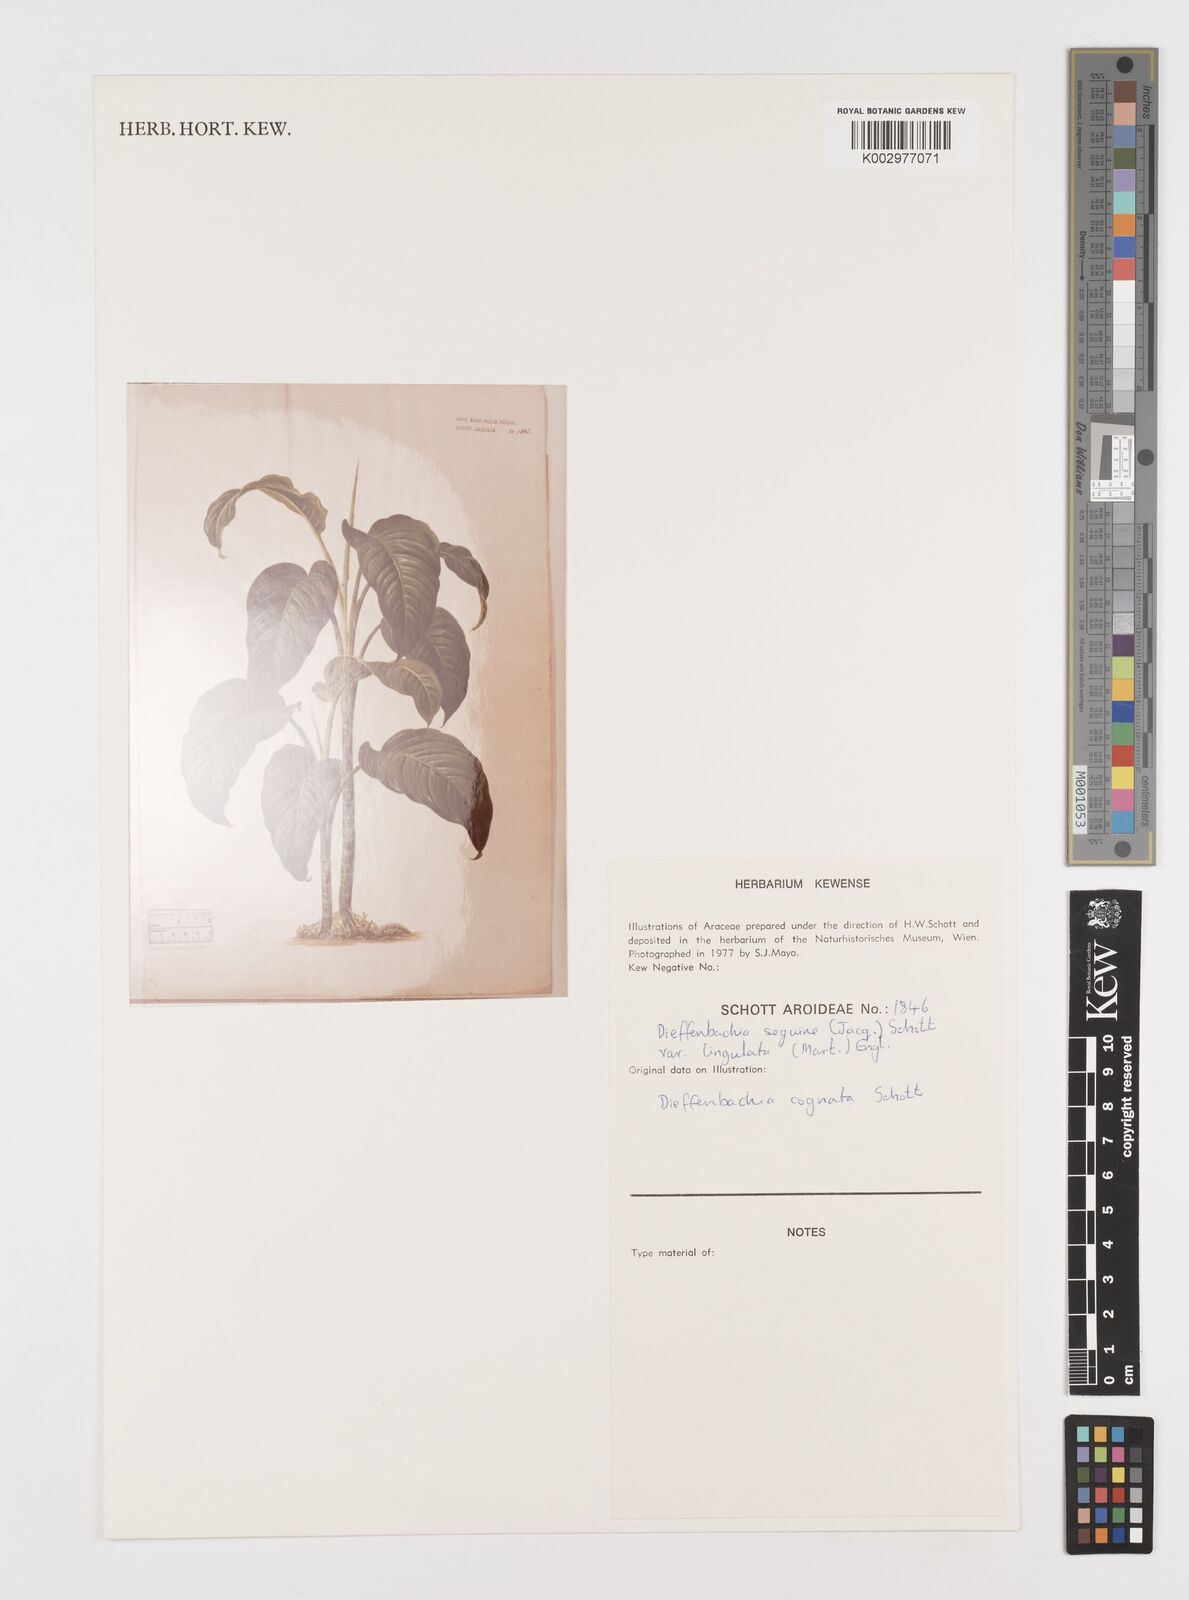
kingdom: Plantae
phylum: Tracheophyta
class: Liliopsida
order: Alismatales
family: Araceae
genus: Dieffenbachia
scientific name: Dieffenbachia seguine
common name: Dumbcane
